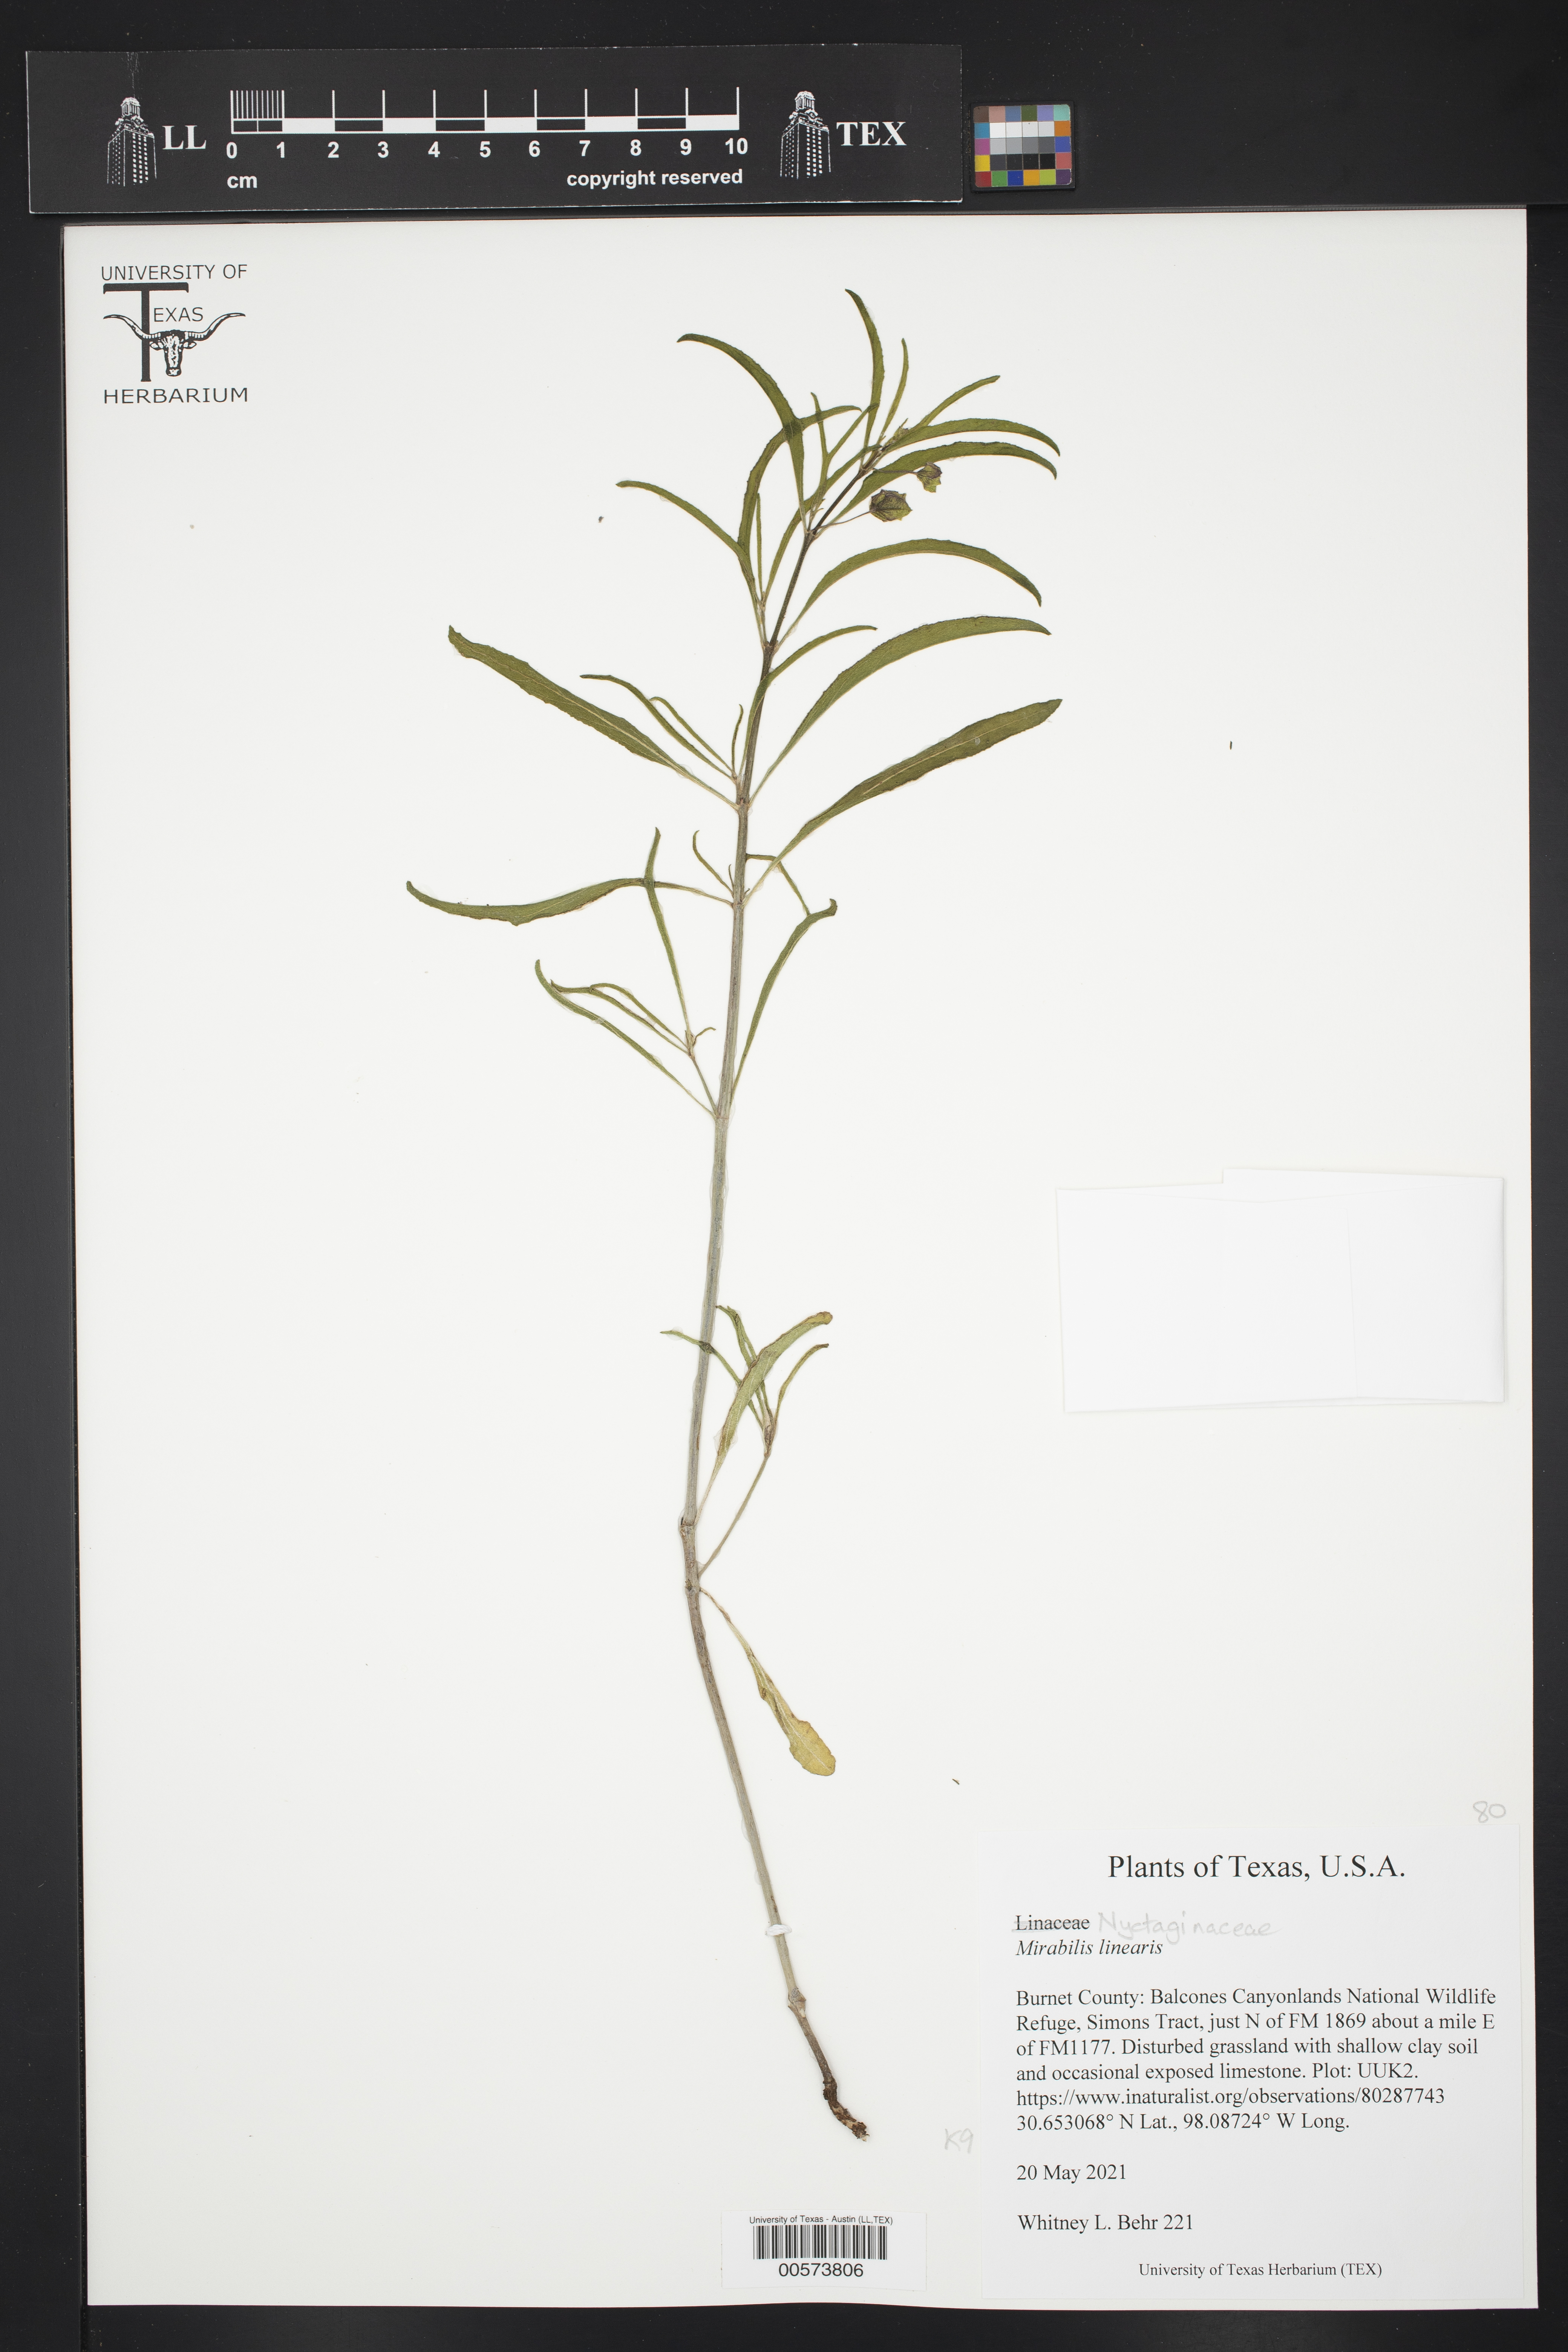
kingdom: Plantae
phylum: Tracheophyta
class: Magnoliopsida
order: Caryophyllales
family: Nyctaginaceae
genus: Mirabilis
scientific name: Mirabilis linearis
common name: Linear-leaved four-o'clock
